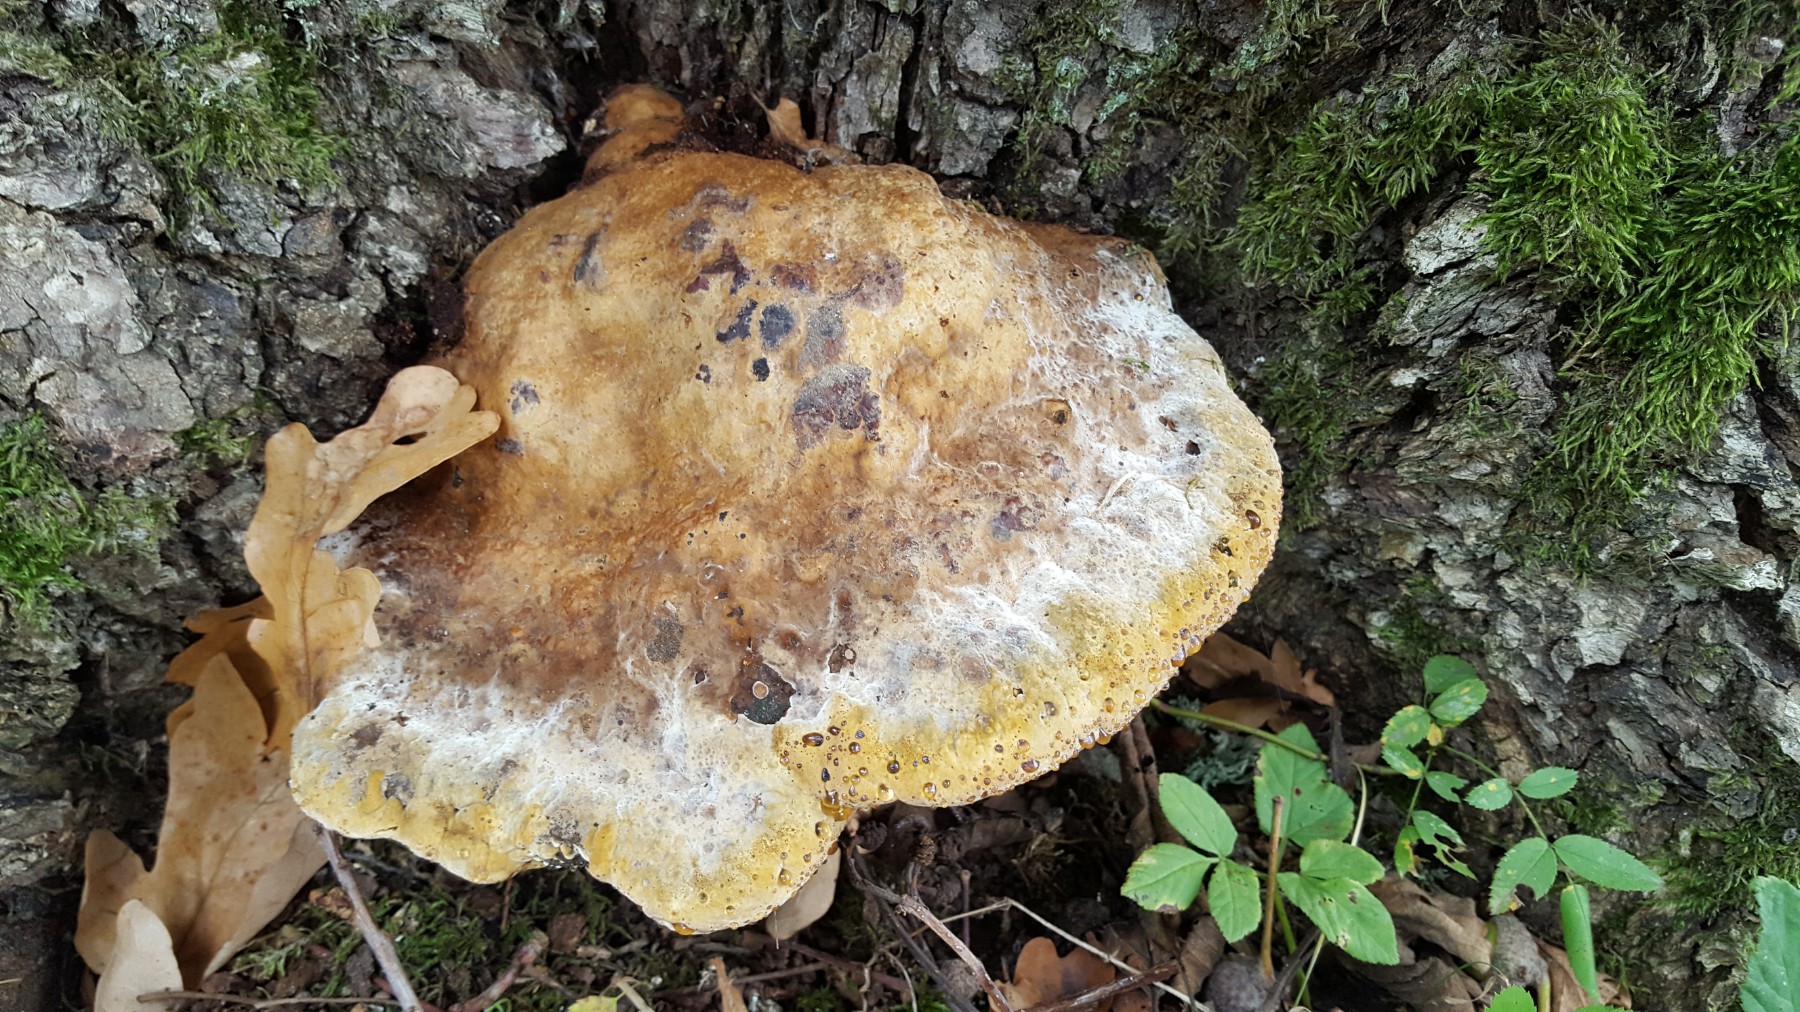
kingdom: Fungi
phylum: Basidiomycota
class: Agaricomycetes
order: Hymenochaetales
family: Hymenochaetaceae
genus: Pseudoinonotus
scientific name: Pseudoinonotus dryadeus
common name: ege-spejlporesvamp
